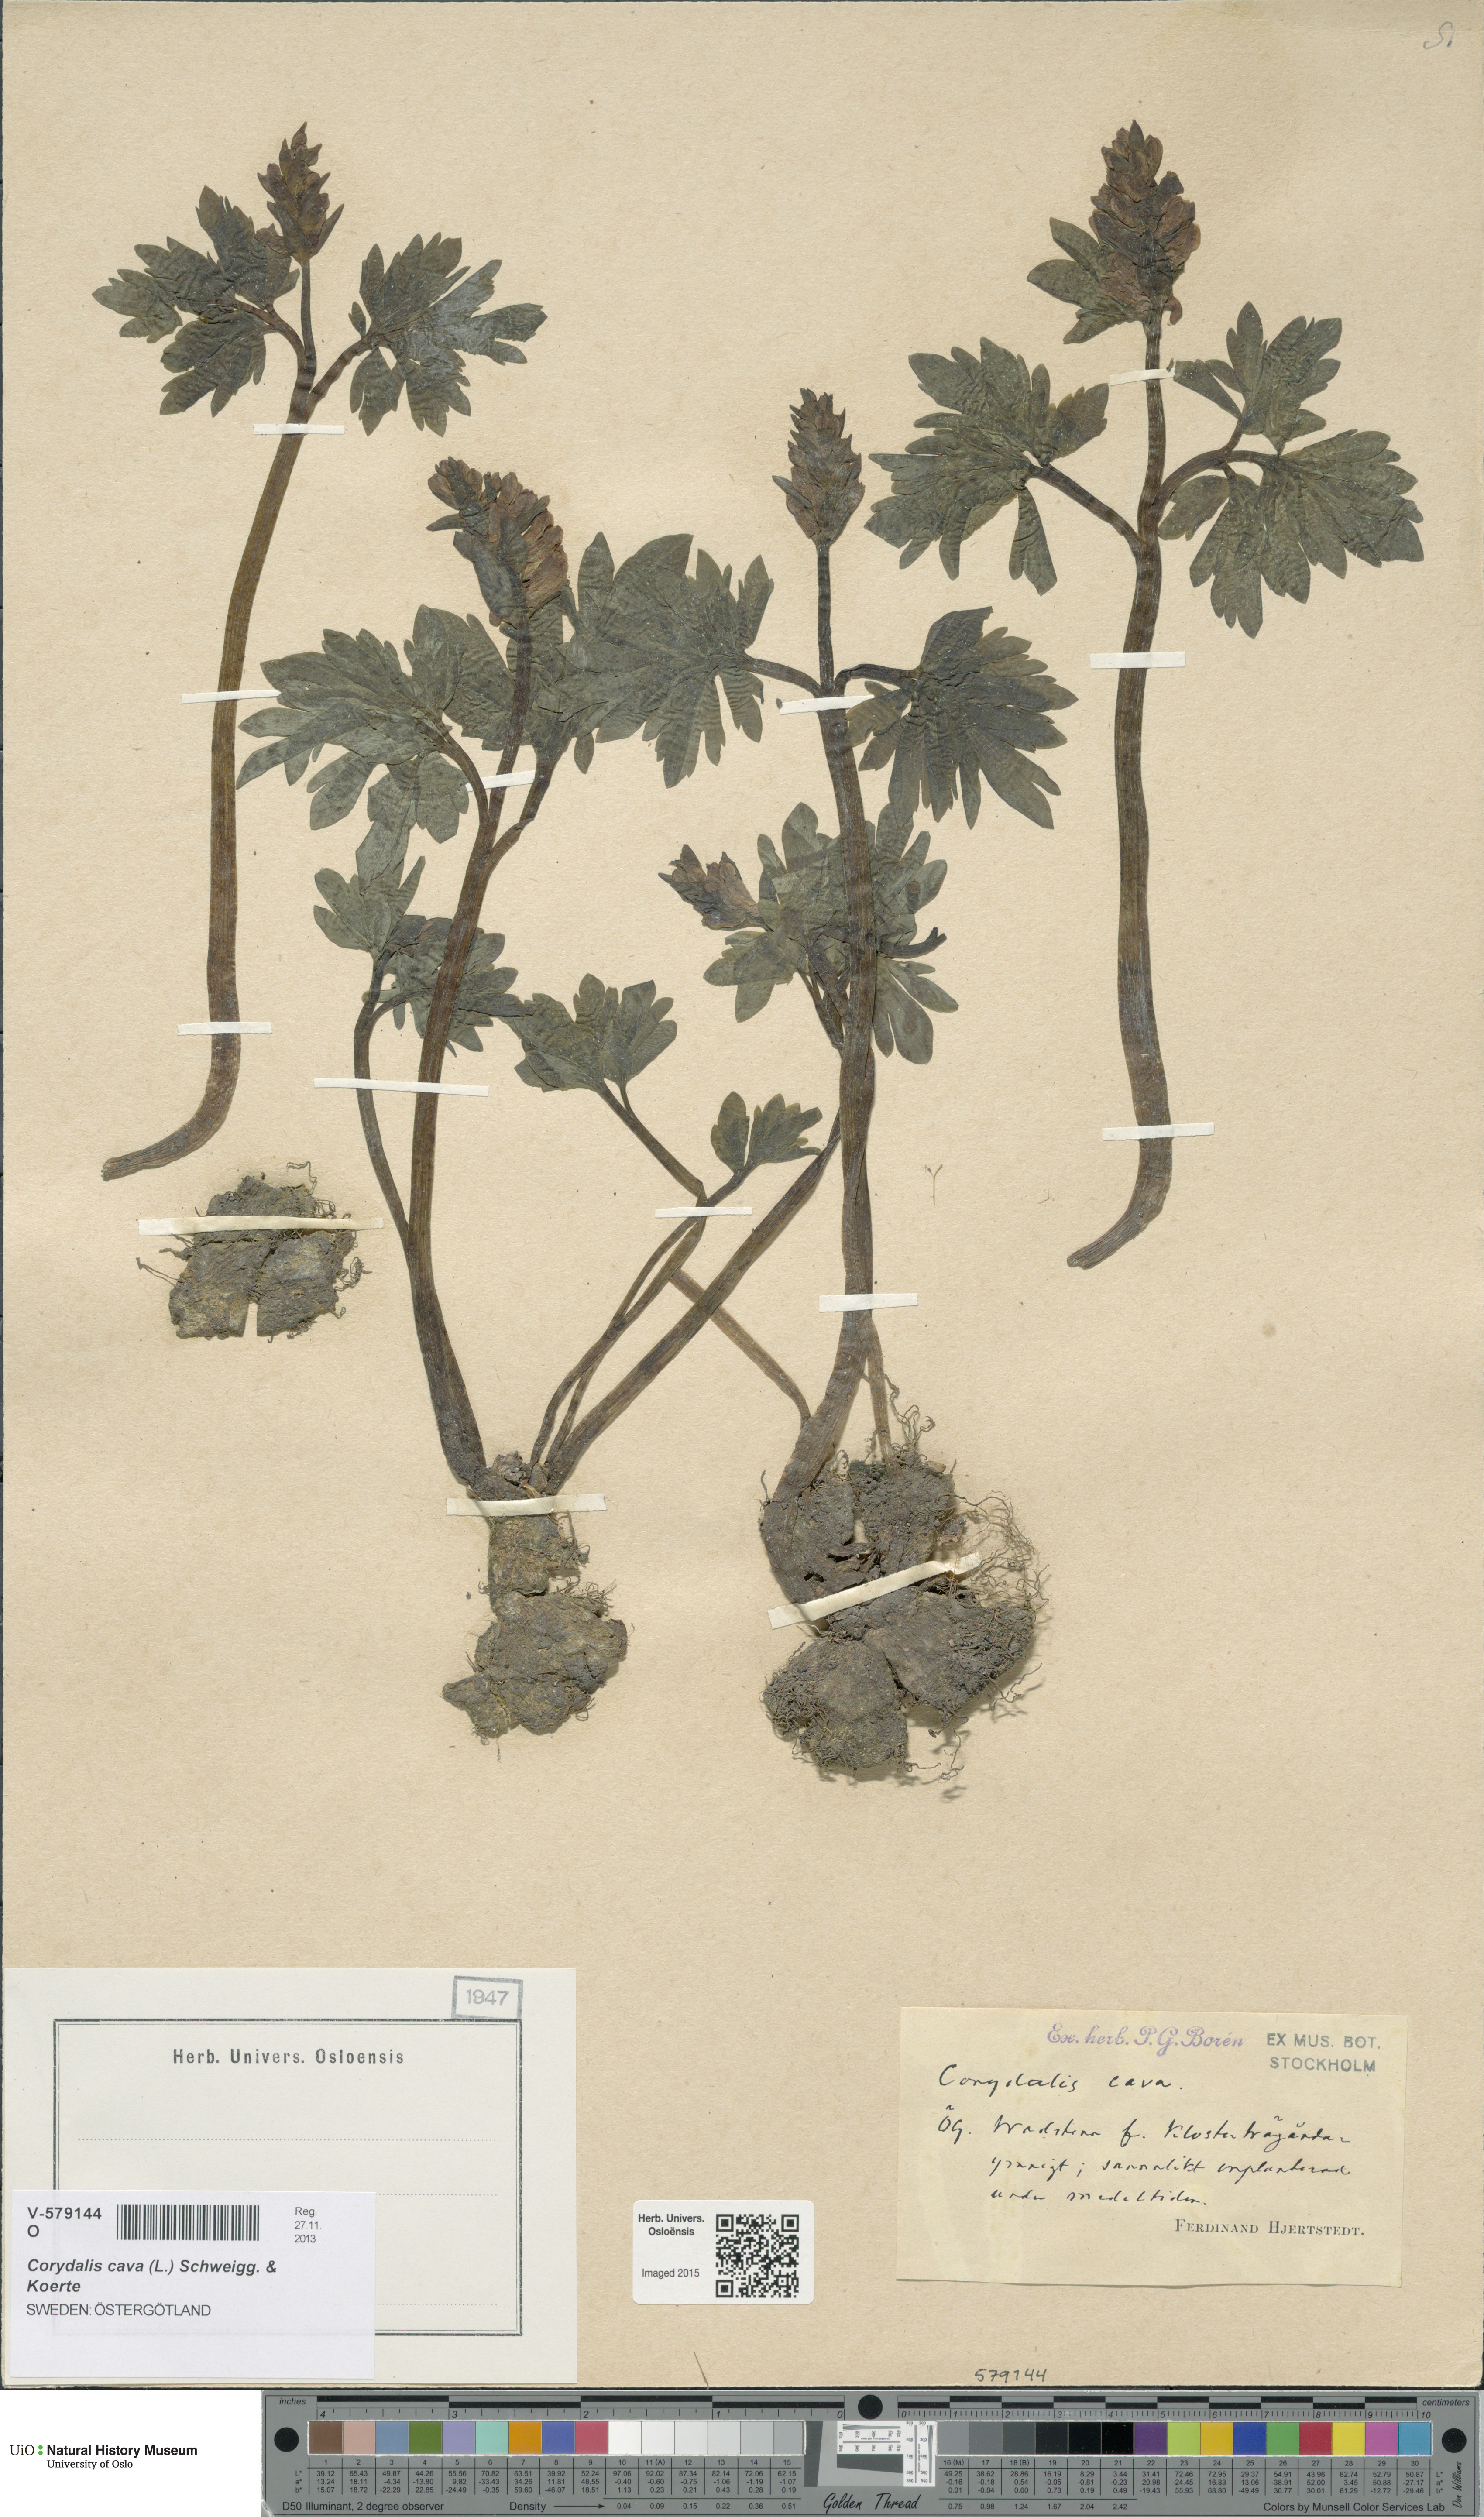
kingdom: Plantae
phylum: Tracheophyta
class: Magnoliopsida
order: Ranunculales
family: Papaveraceae
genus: Corydalis
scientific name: Corydalis cava
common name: Hollowroot
